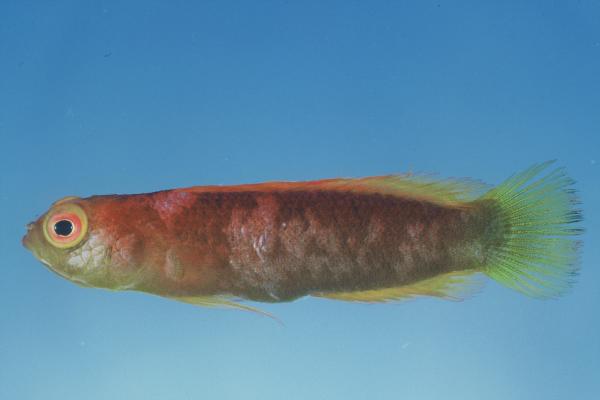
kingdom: Animalia
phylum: Chordata
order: Perciformes
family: Pseudochromidae
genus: Chlidichthys
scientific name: Chlidichthys pembae
